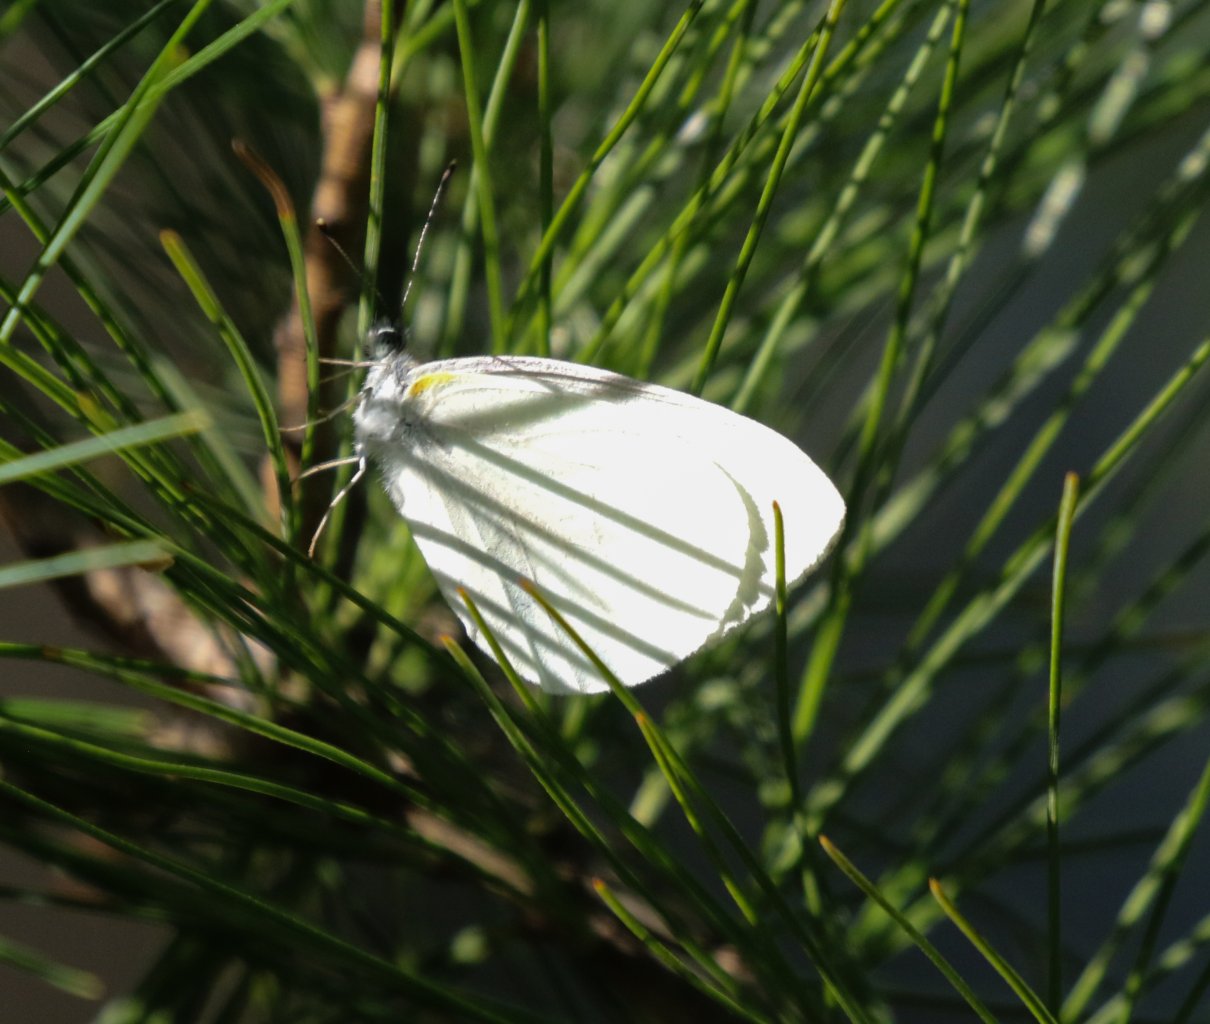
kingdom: Animalia
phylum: Arthropoda
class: Insecta
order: Lepidoptera
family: Pieridae
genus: Pieris
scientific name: Pieris oleracea
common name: Mustard White
